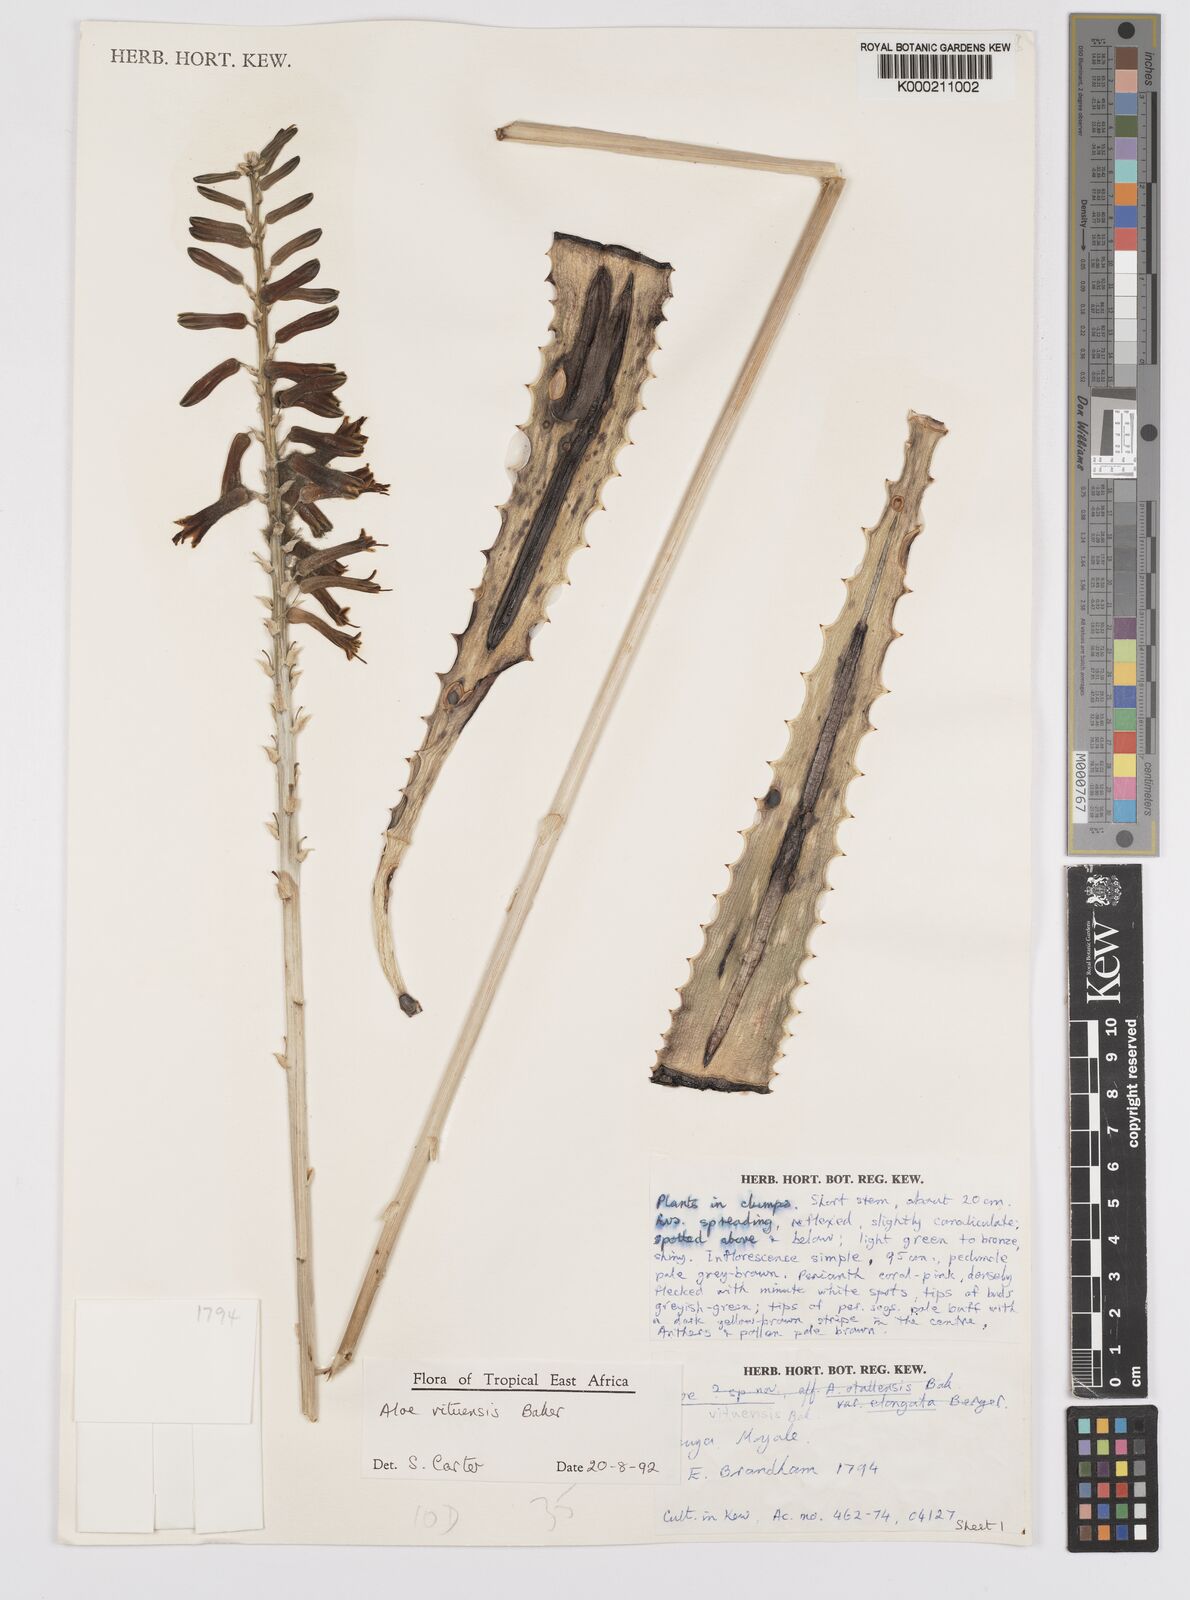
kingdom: Plantae
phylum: Tracheophyta
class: Liliopsida
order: Asparagales
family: Asphodelaceae
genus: Aloe
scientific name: Aloe vituensis
